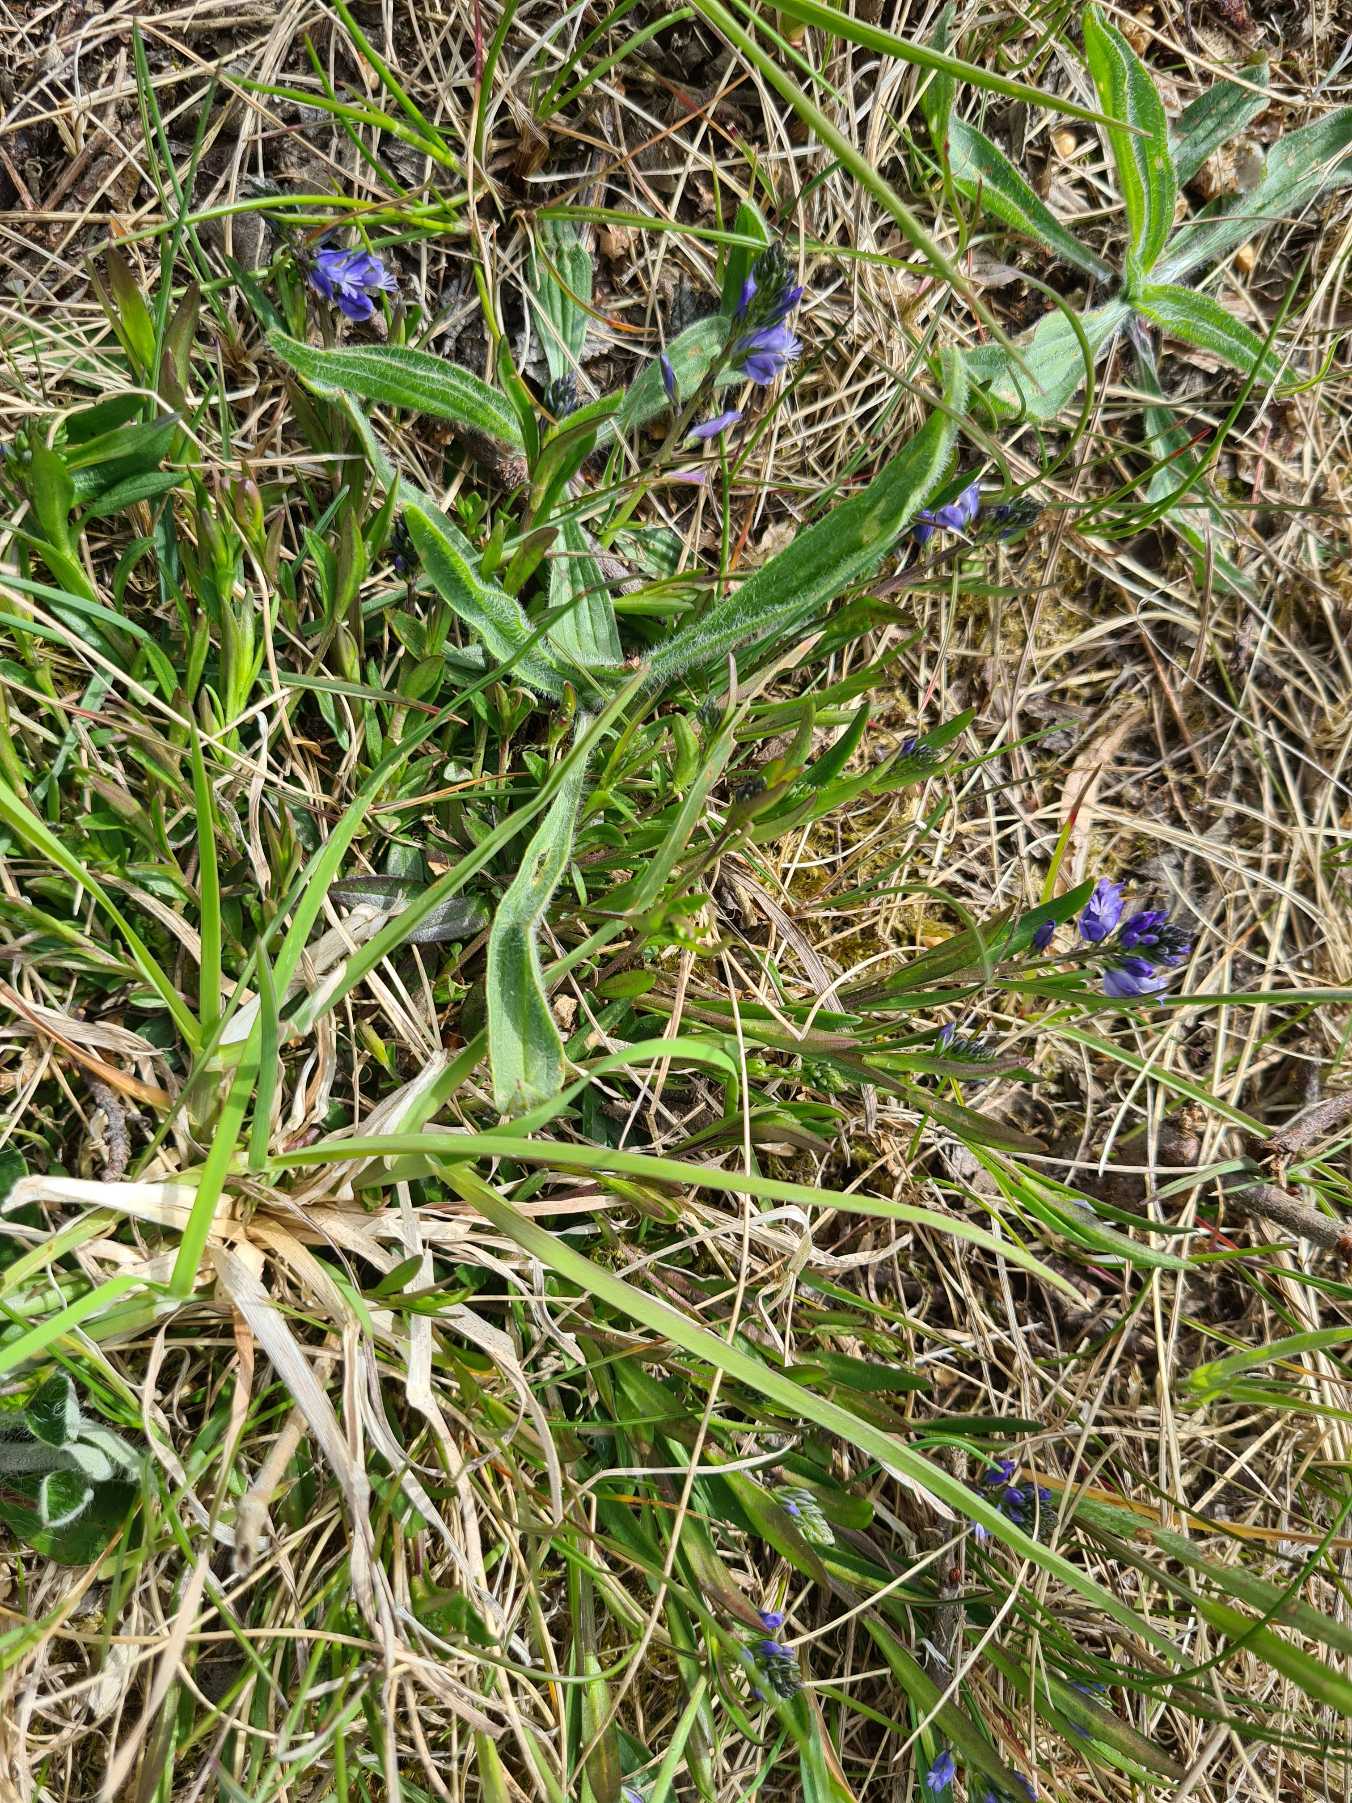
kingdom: Plantae
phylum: Tracheophyta
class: Magnoliopsida
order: Fabales
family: Polygalaceae
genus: Polygala
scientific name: Polygala vulgaris
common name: Almindelig mælkeurt
